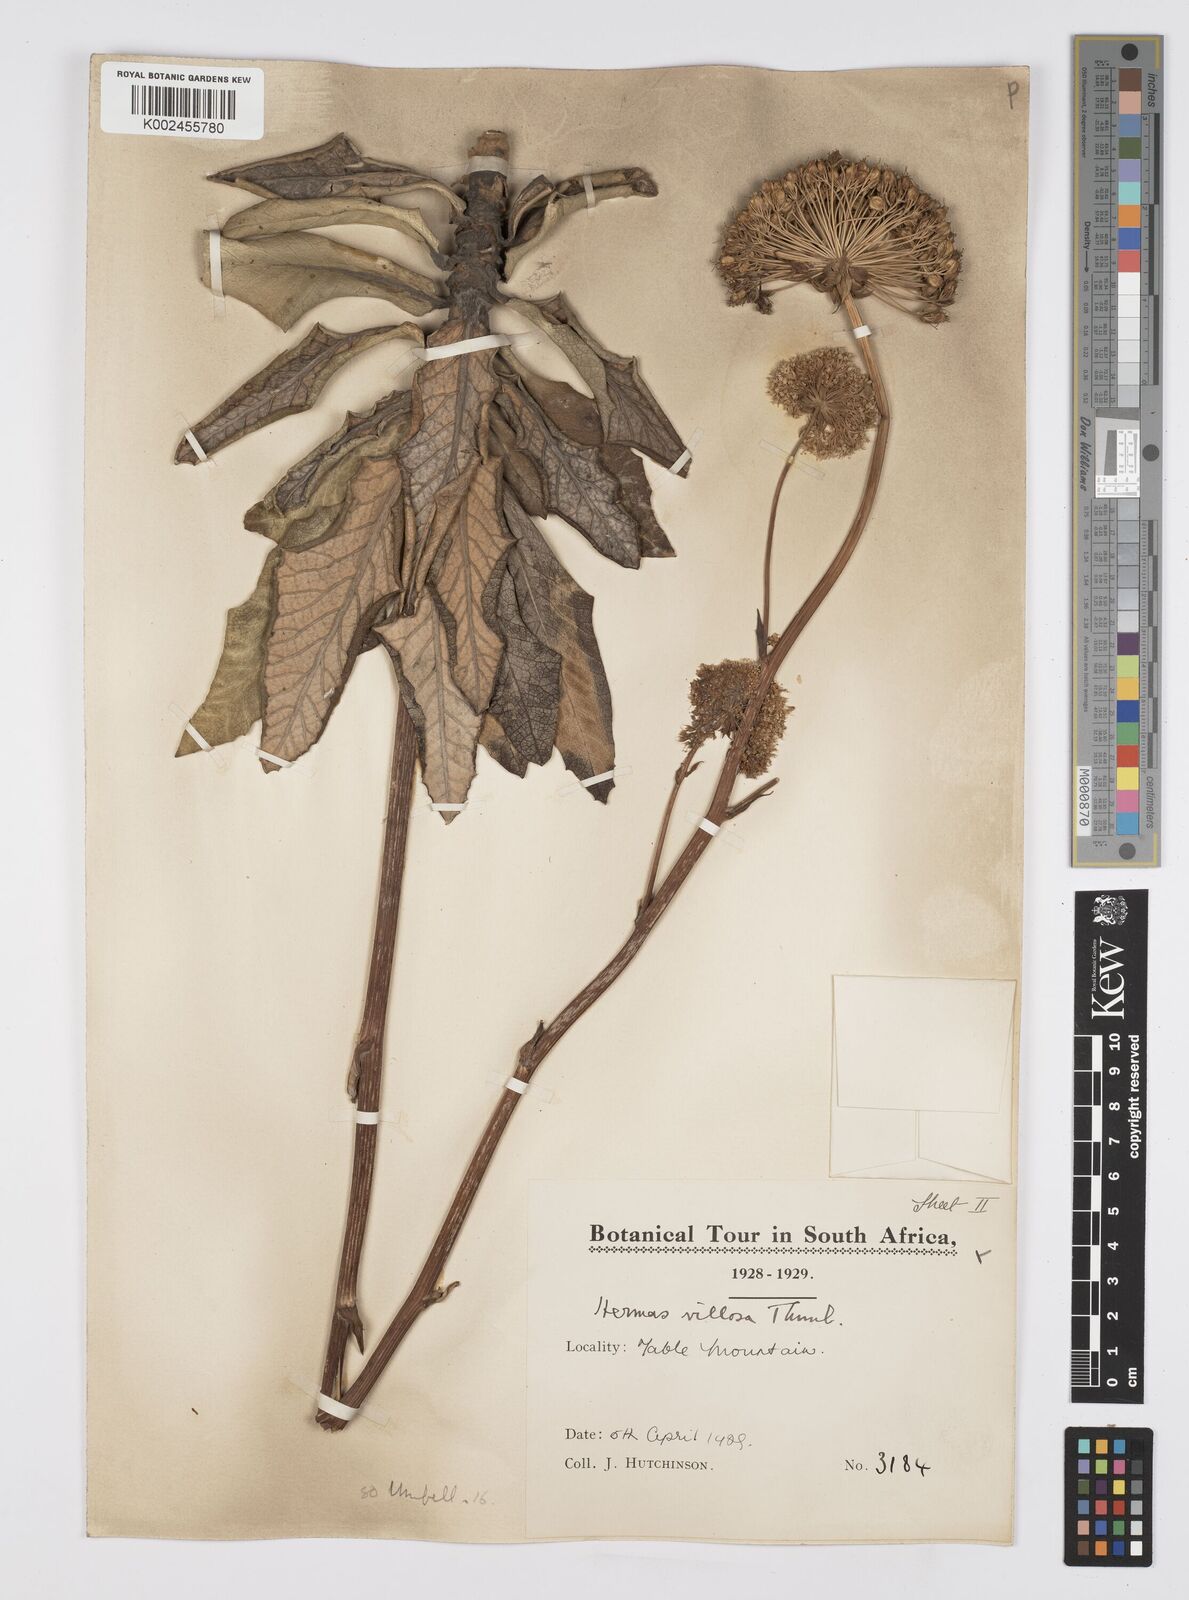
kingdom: Plantae
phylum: Tracheophyta
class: Magnoliopsida
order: Apiales
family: Apiaceae
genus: Hermas
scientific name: Hermas villosa
